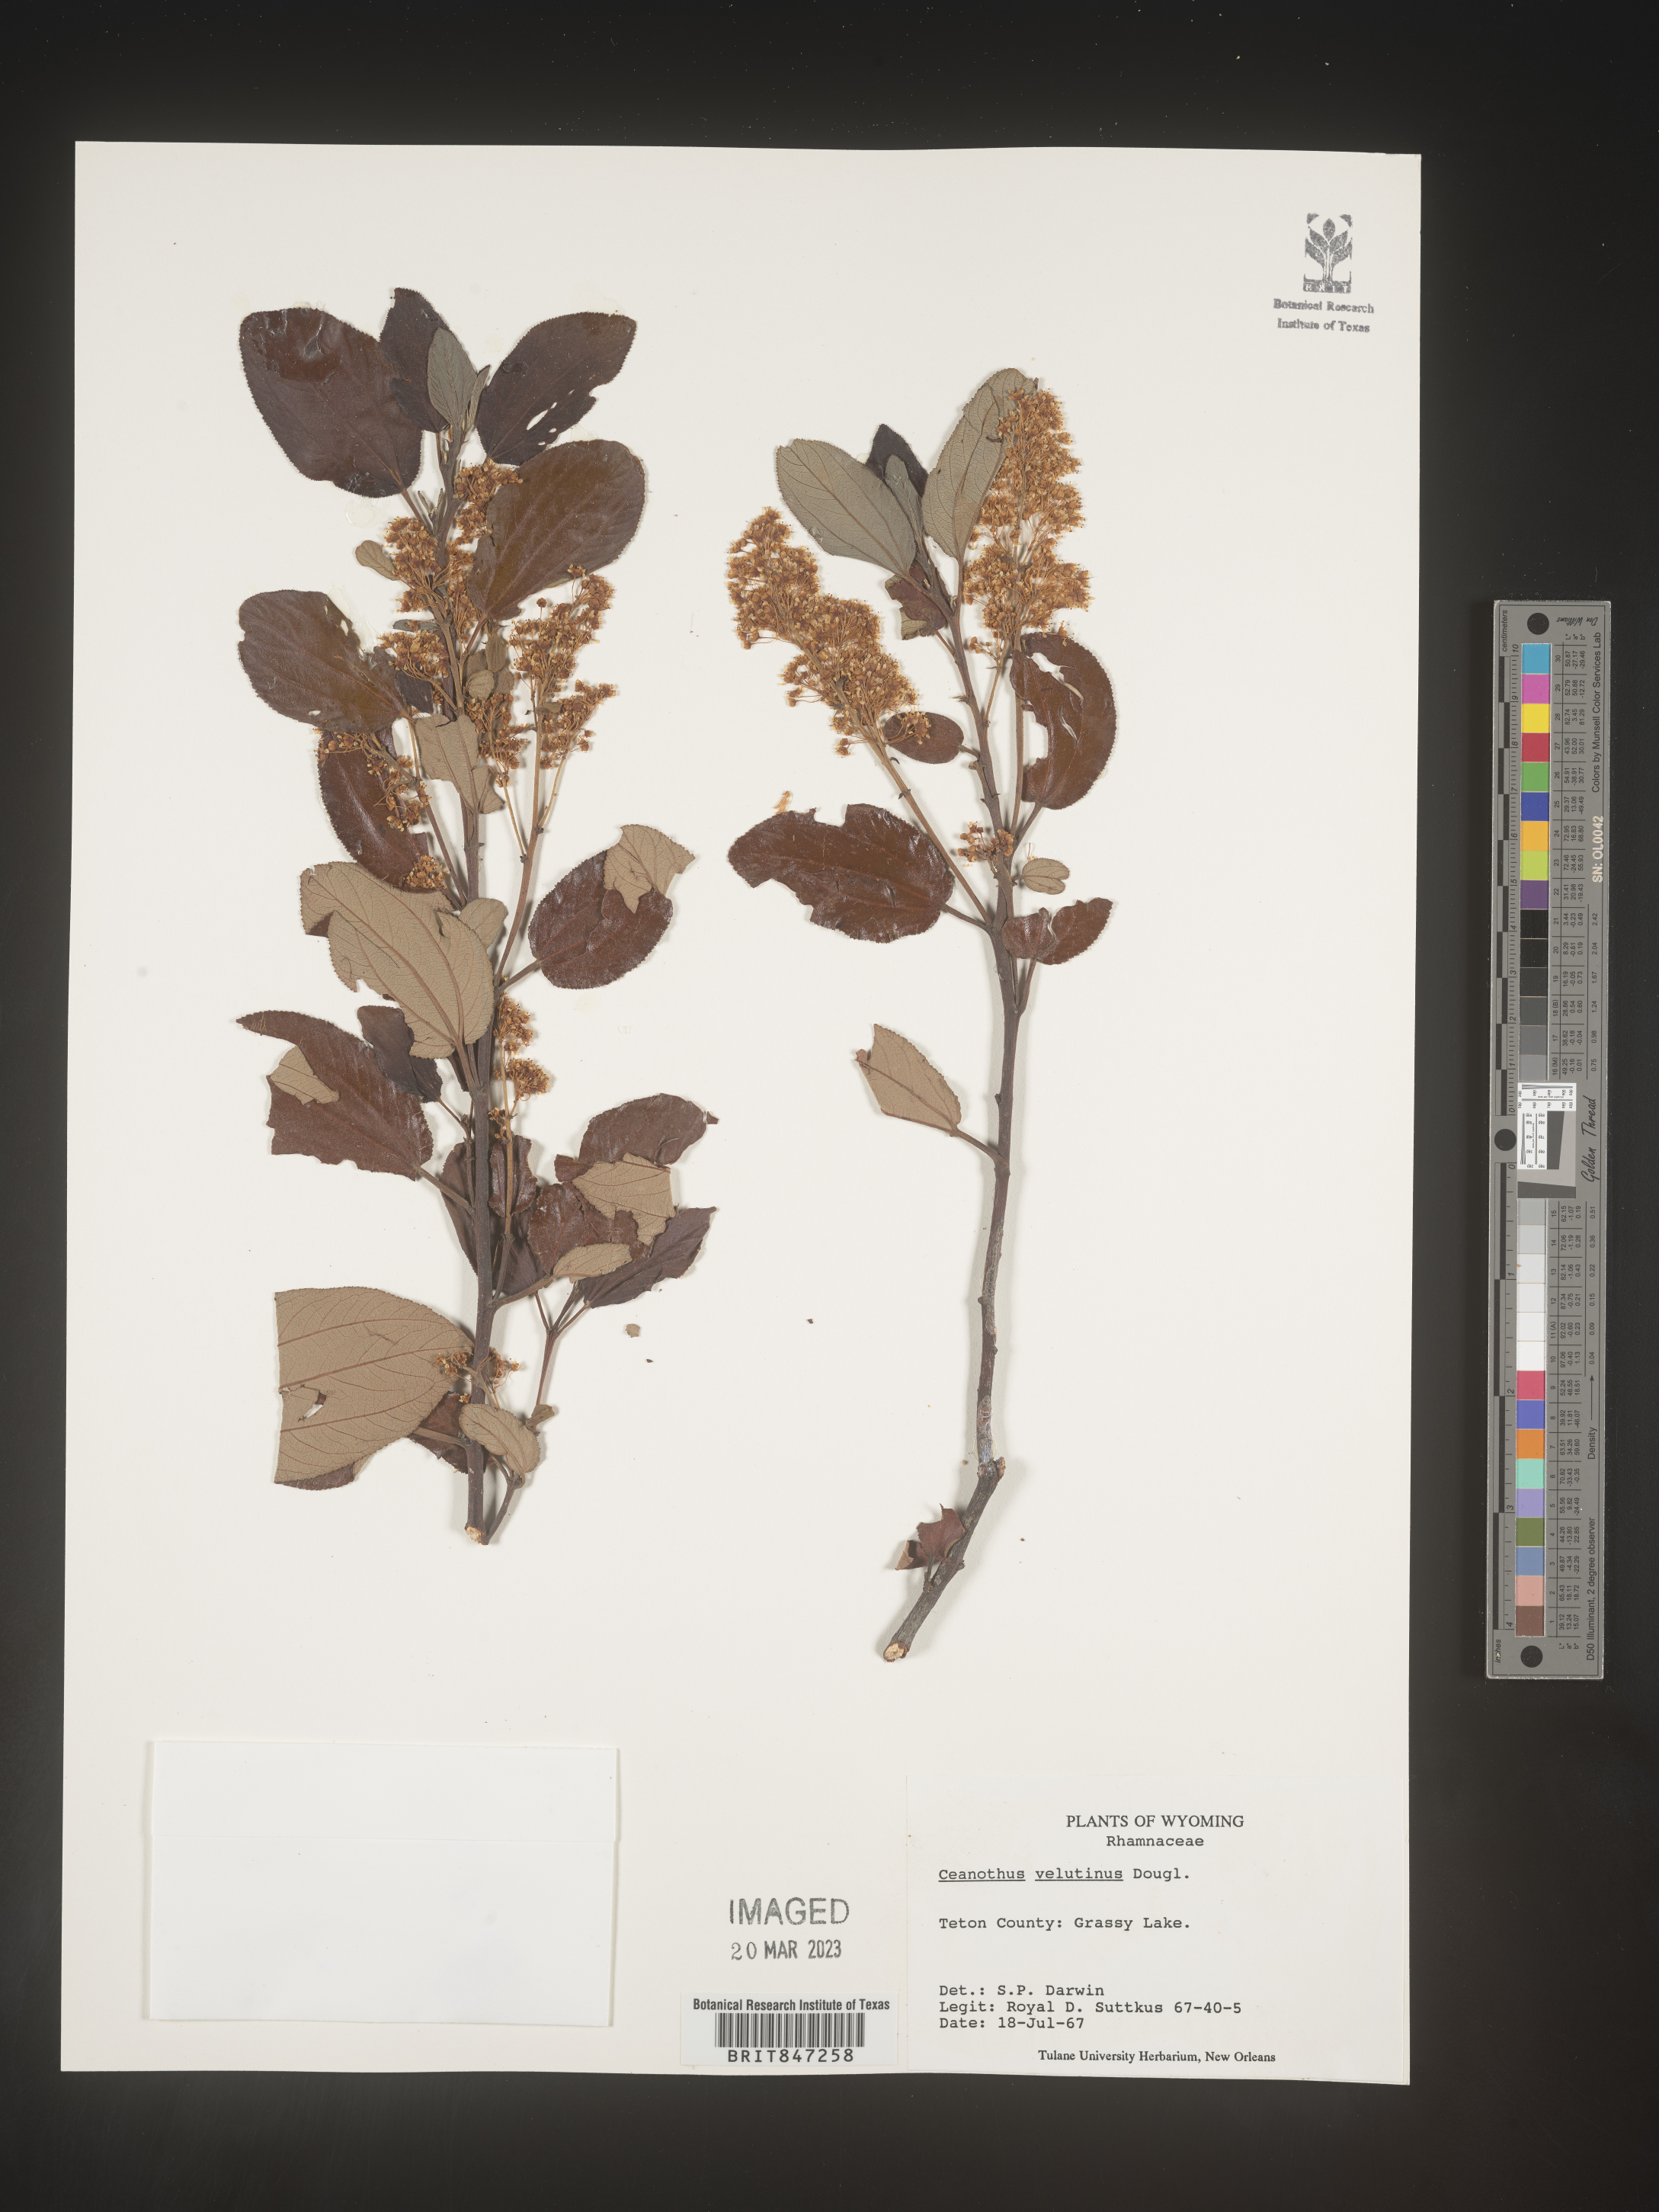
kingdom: Plantae
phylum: Tracheophyta
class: Magnoliopsida
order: Rosales
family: Rhamnaceae
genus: Ceanothus
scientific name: Ceanothus velutinus
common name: Snowbrush
